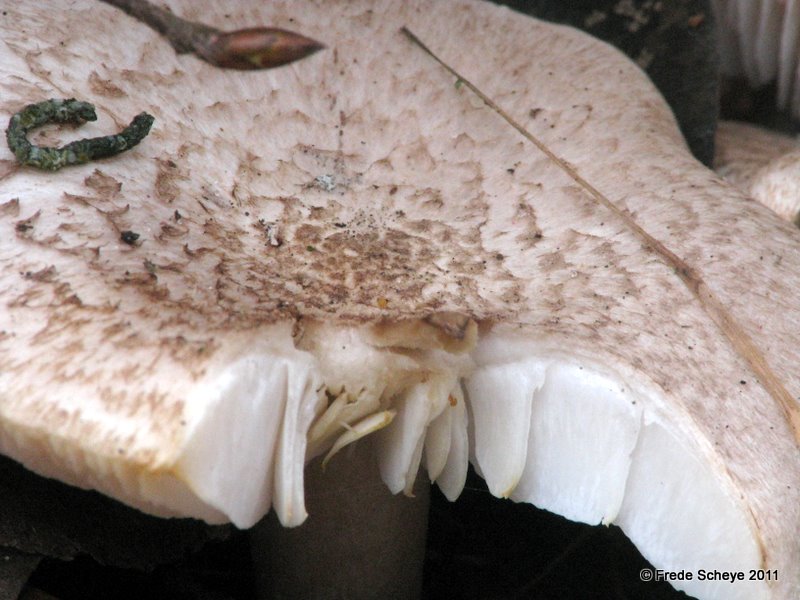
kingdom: Fungi
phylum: Basidiomycota
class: Agaricomycetes
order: Agaricales
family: Tricholomataceae
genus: Tricholoma
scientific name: Tricholoma scalpturatum
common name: gulplettet ridderhat
